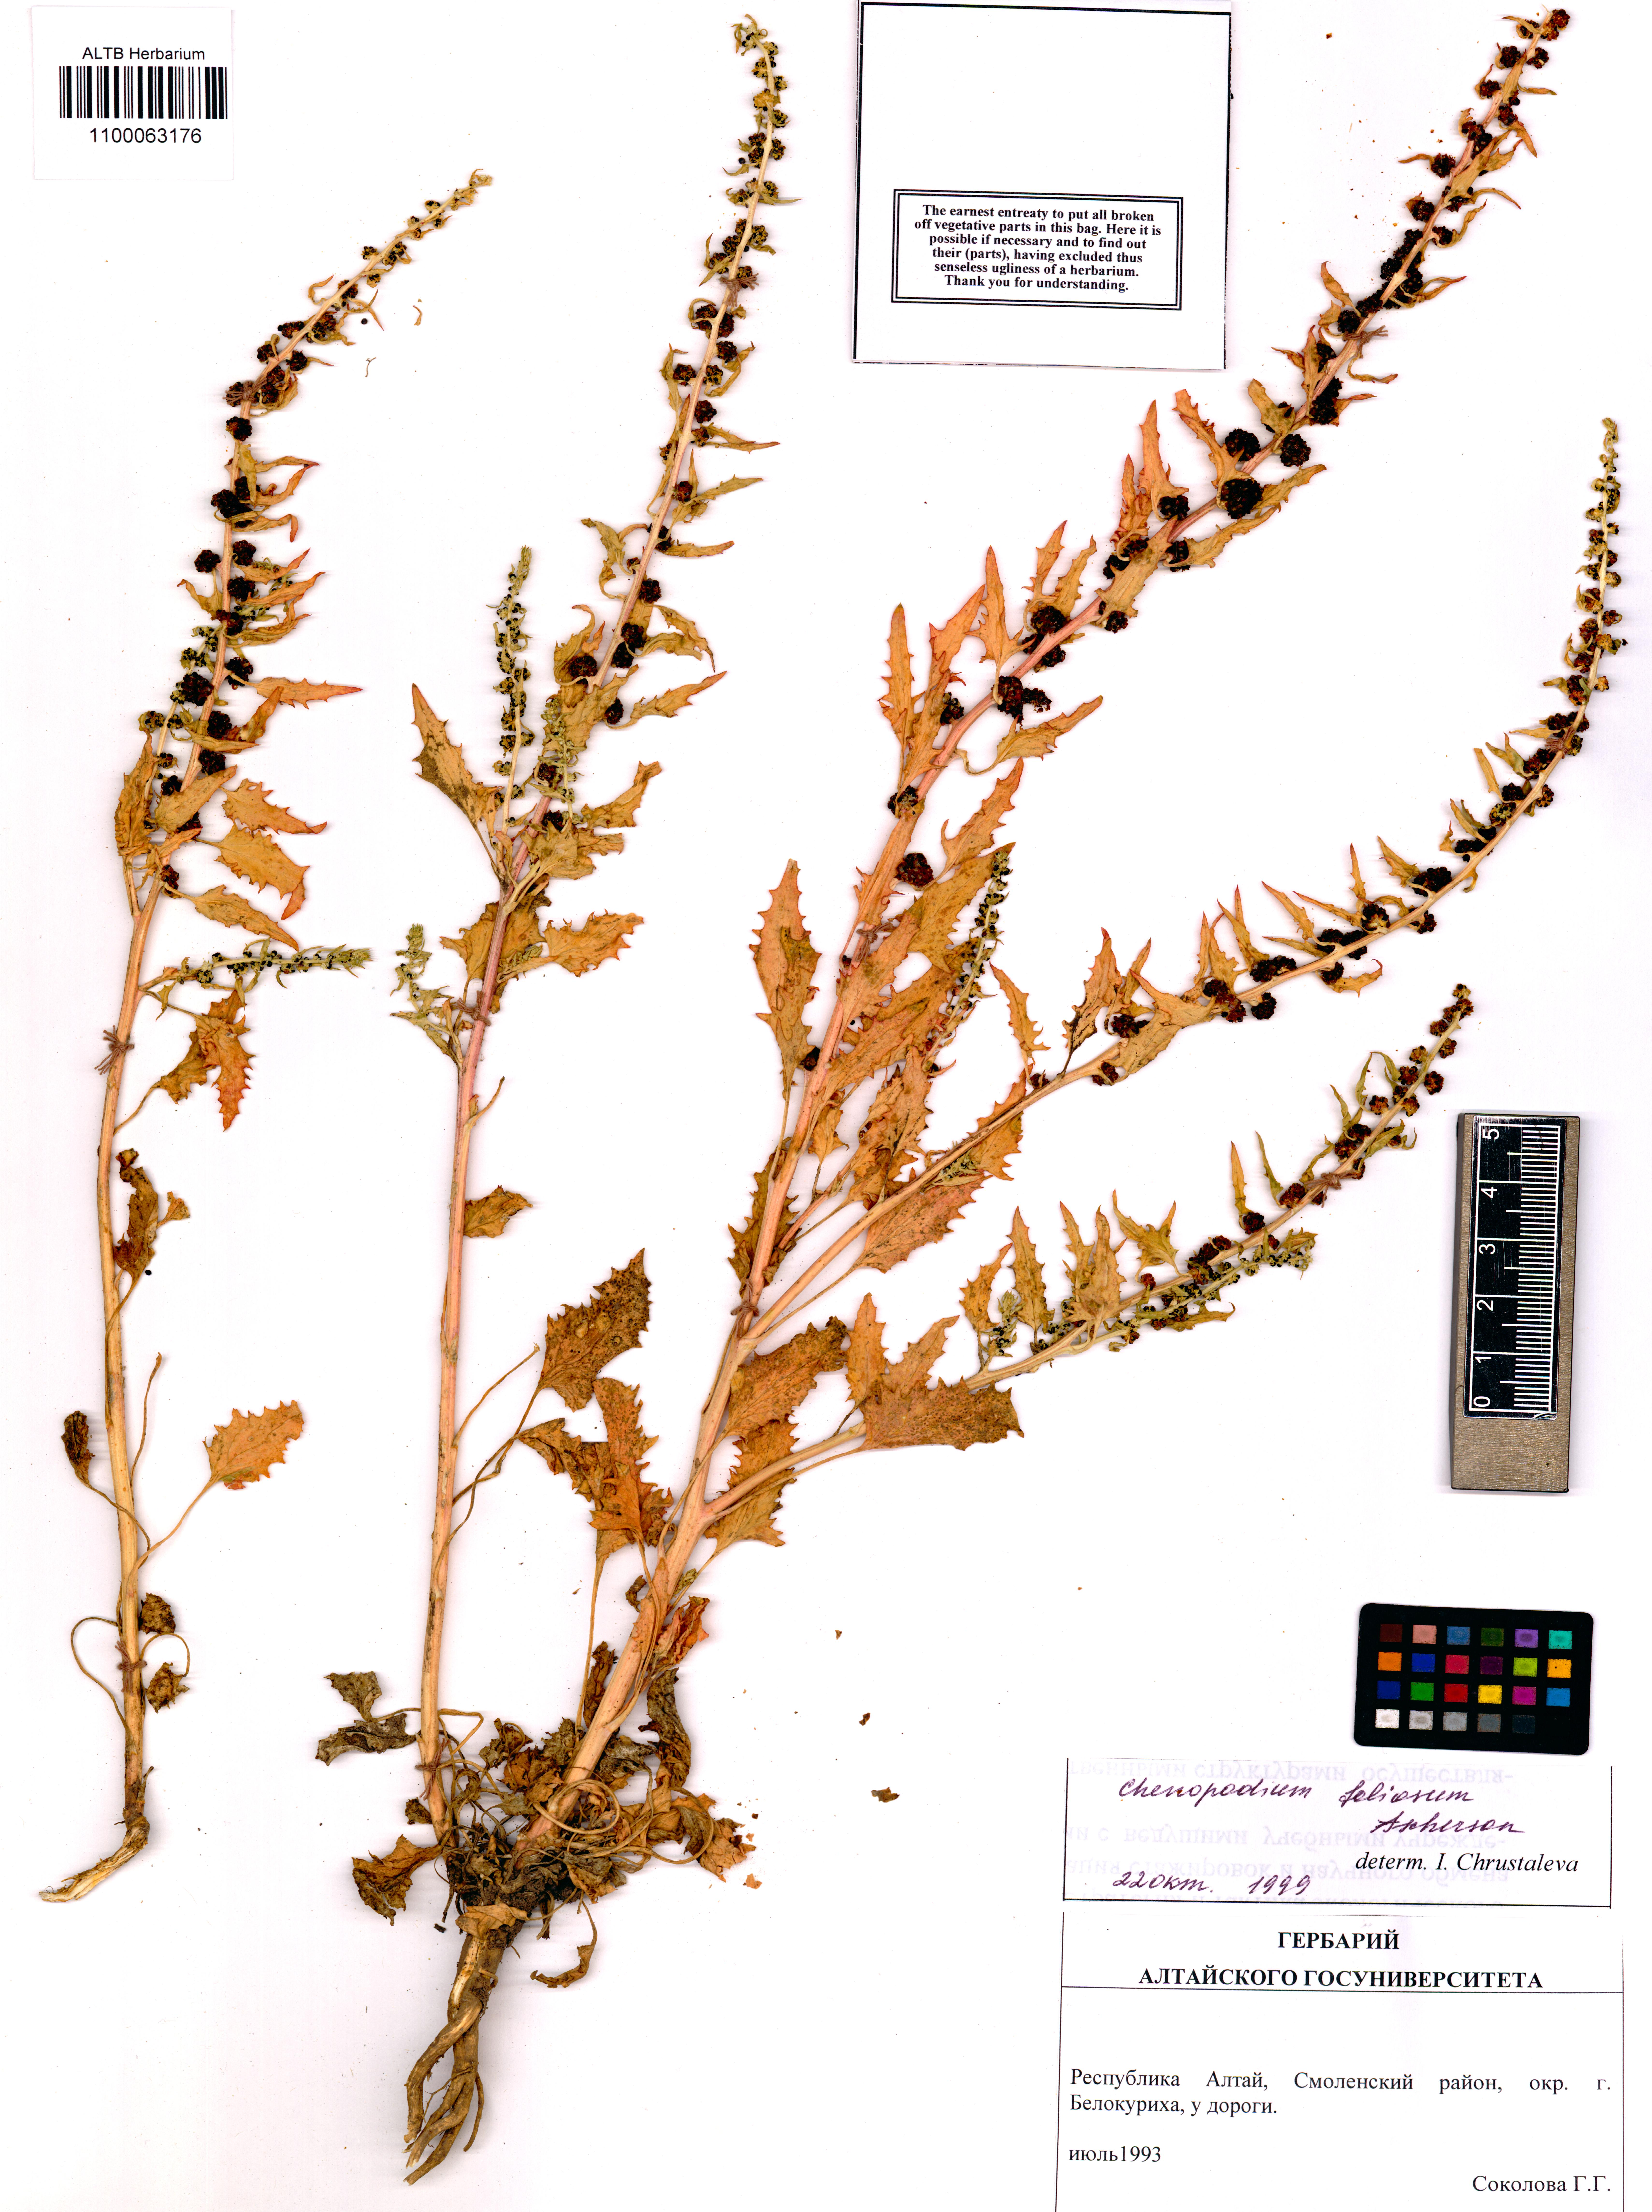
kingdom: Plantae
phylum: Tracheophyta
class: Magnoliopsida
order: Caryophyllales
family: Amaranthaceae
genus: Blitum
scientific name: Blitum virgatum
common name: Strawberry goosefoot
